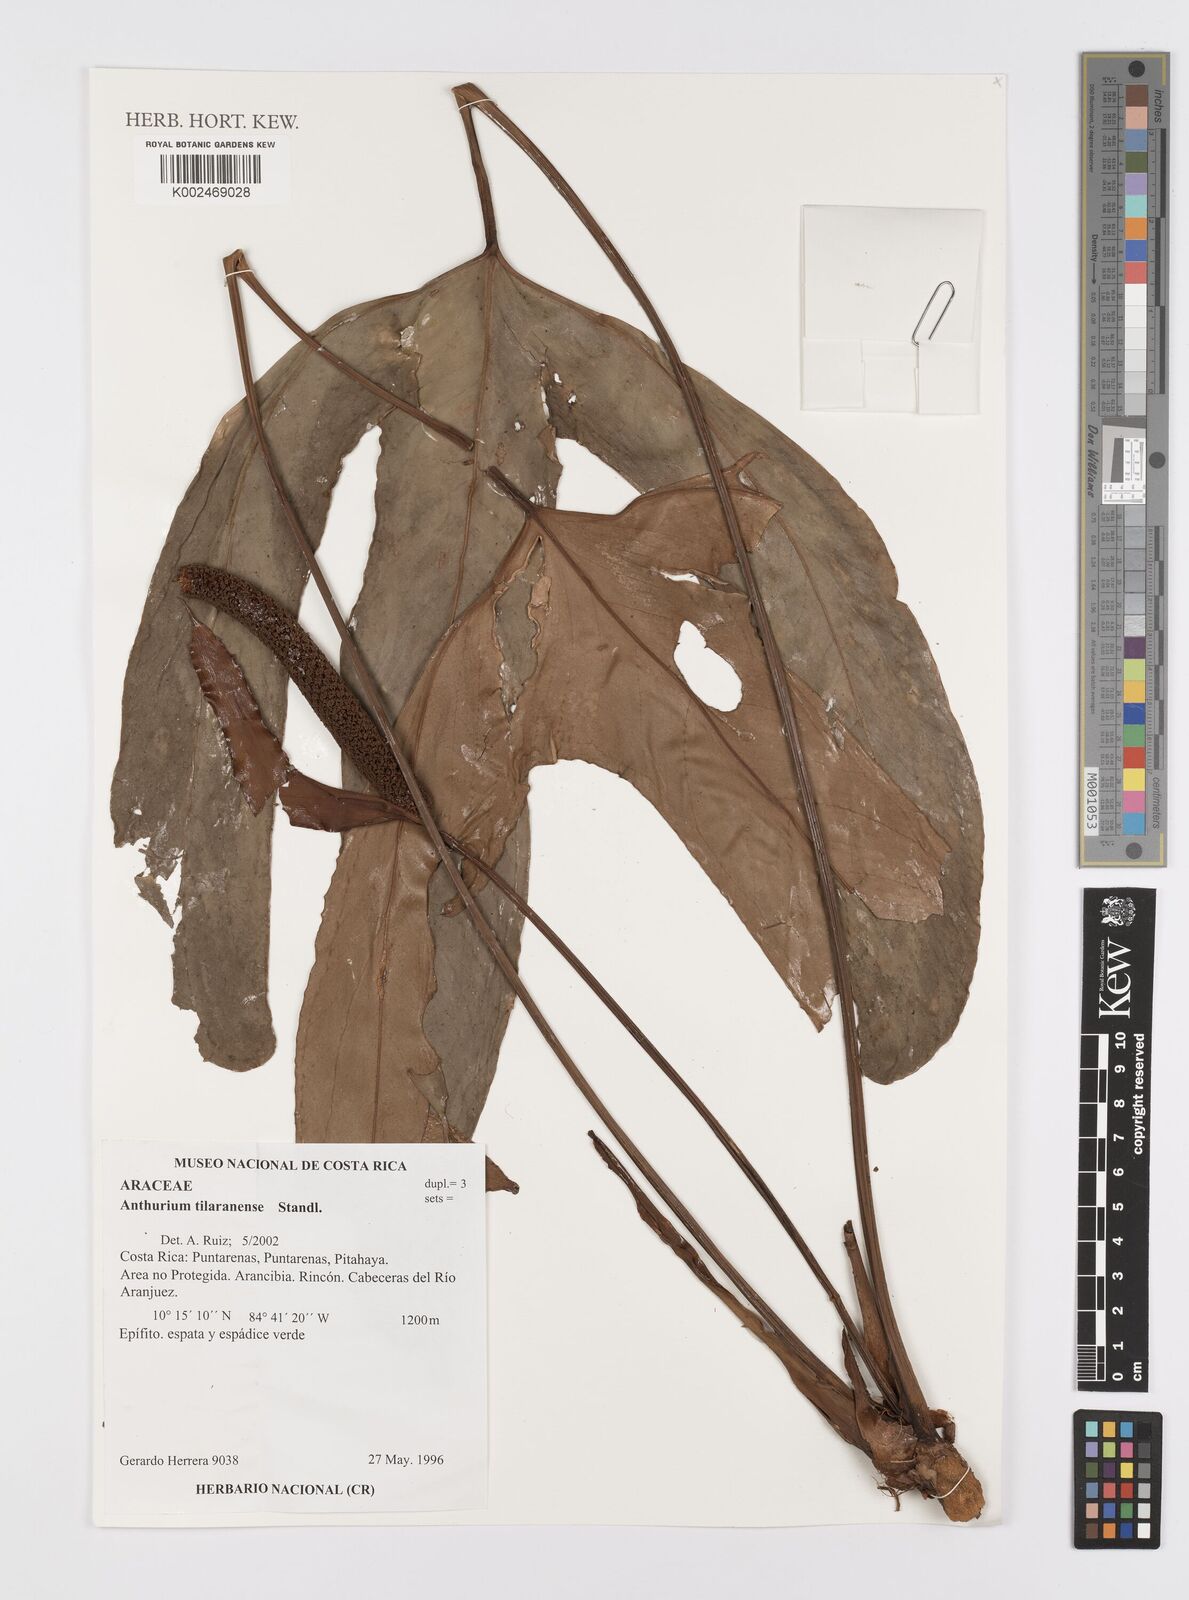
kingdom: Plantae
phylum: Tracheophyta
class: Liliopsida
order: Alismatales
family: Araceae
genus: Anthurium
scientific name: Anthurium tilaranense
